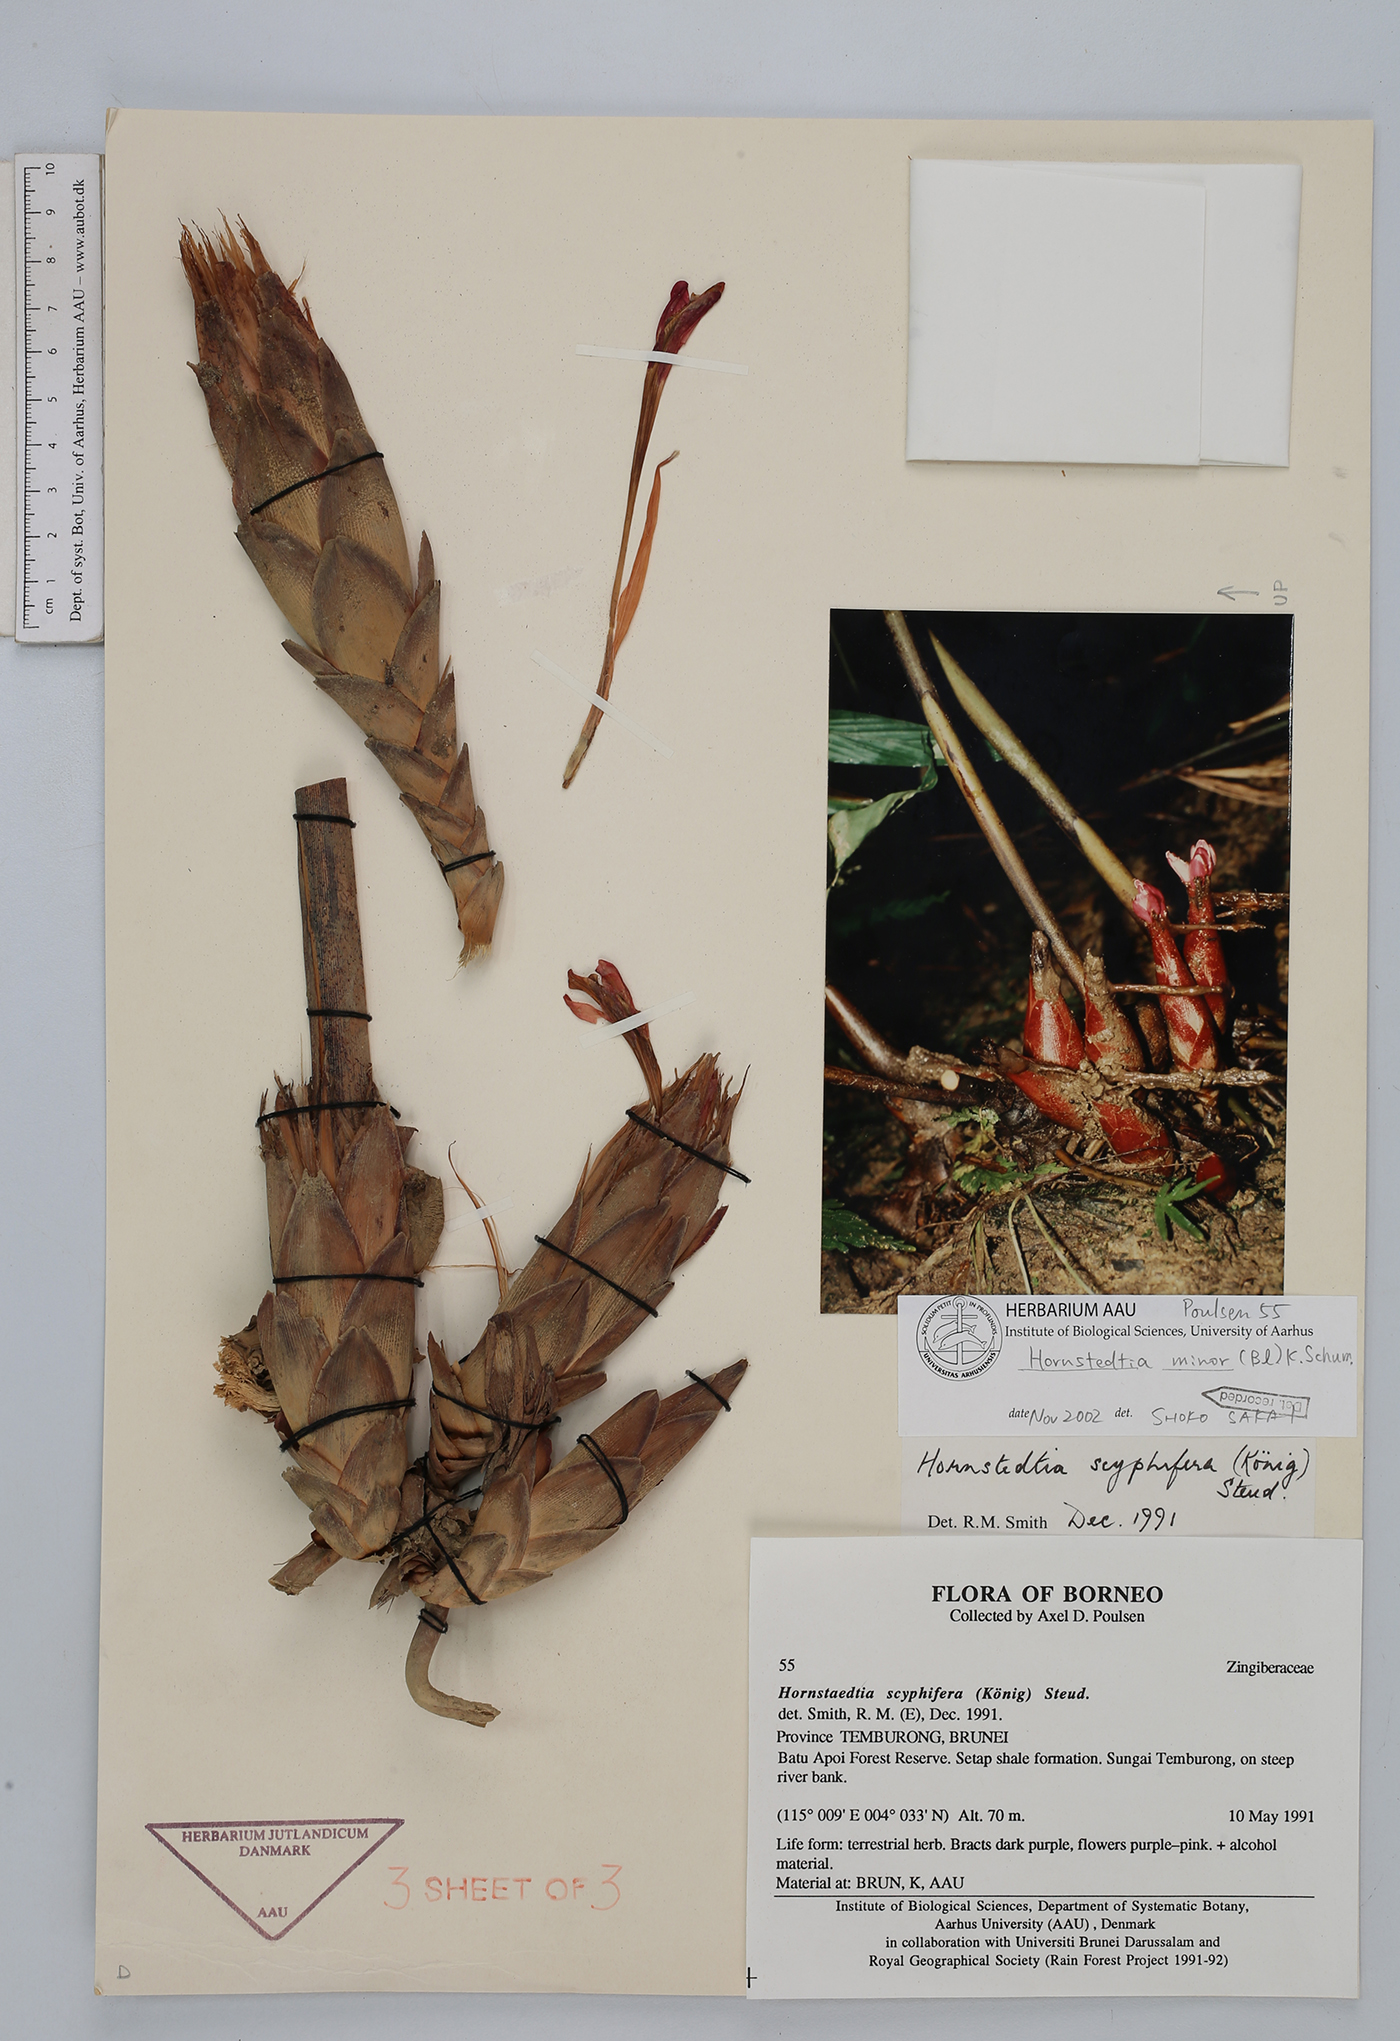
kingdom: Plantae
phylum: Tracheophyta
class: Liliopsida
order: Zingiberales
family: Zingiberaceae
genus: Hornstedtia
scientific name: Hornstedtia minor
